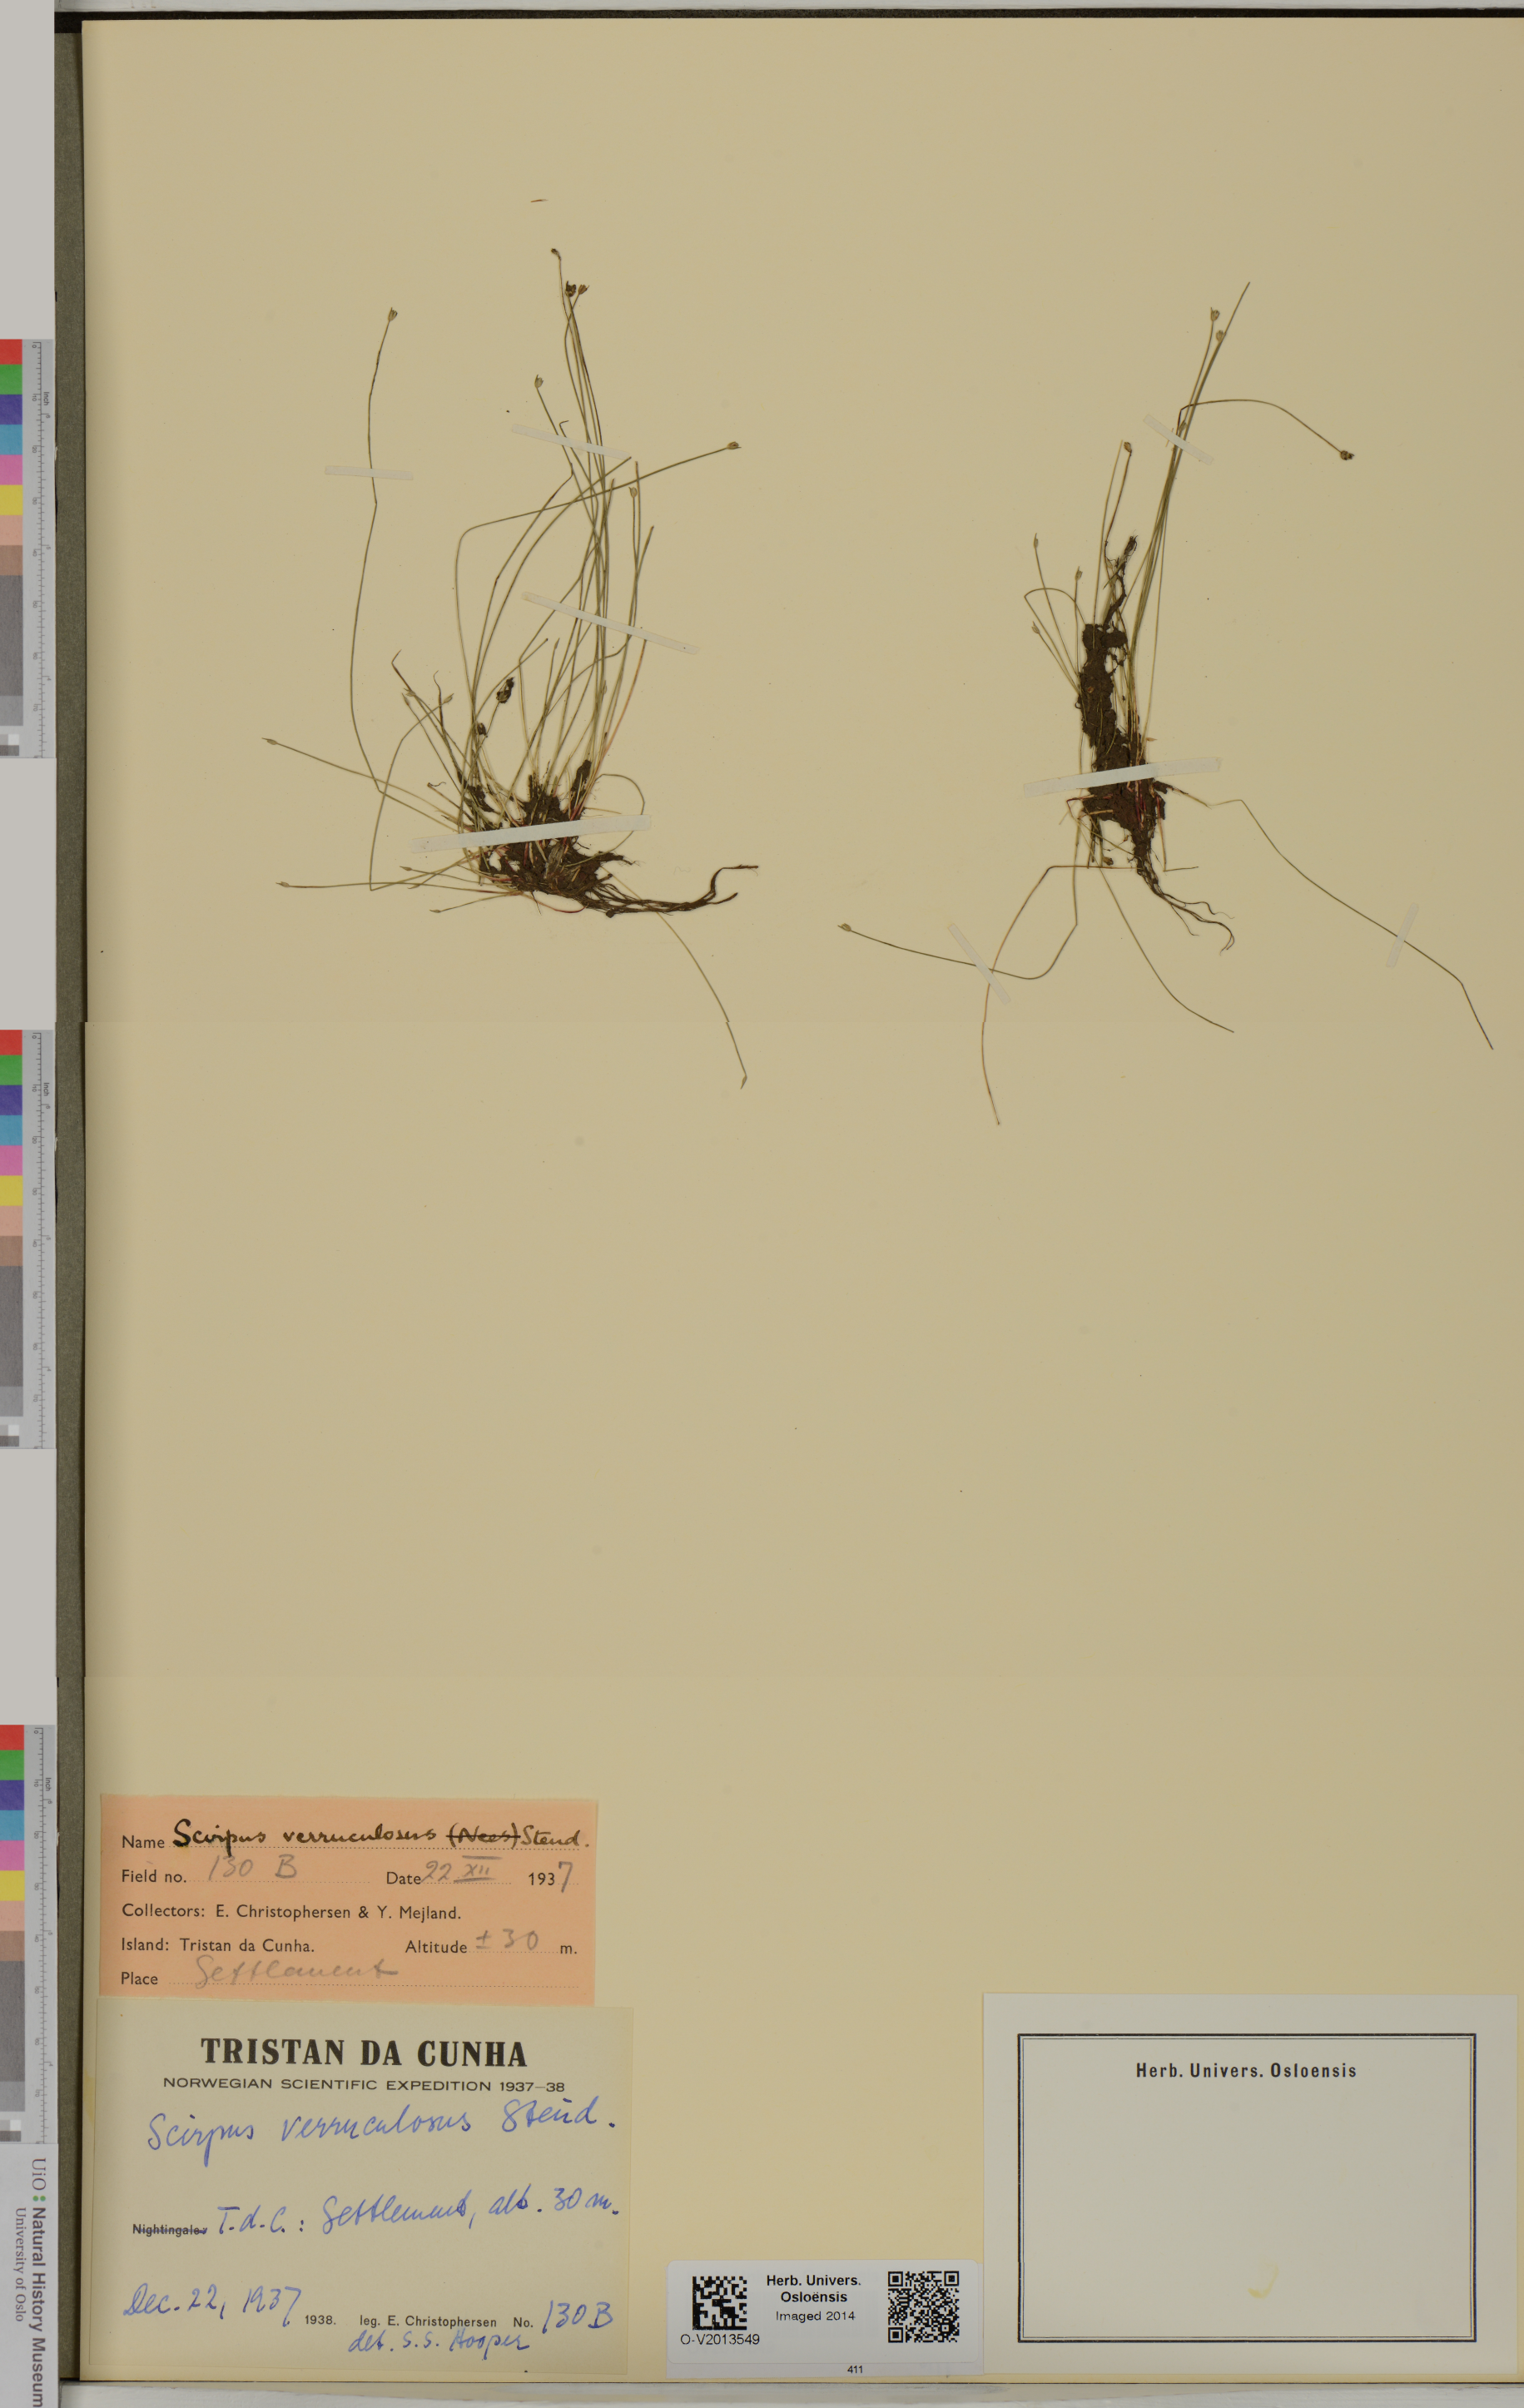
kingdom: Plantae
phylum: Tracheophyta
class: Liliopsida
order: Poales
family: Cyperaceae
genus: Isolepis
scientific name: Isolepis verrucosula
